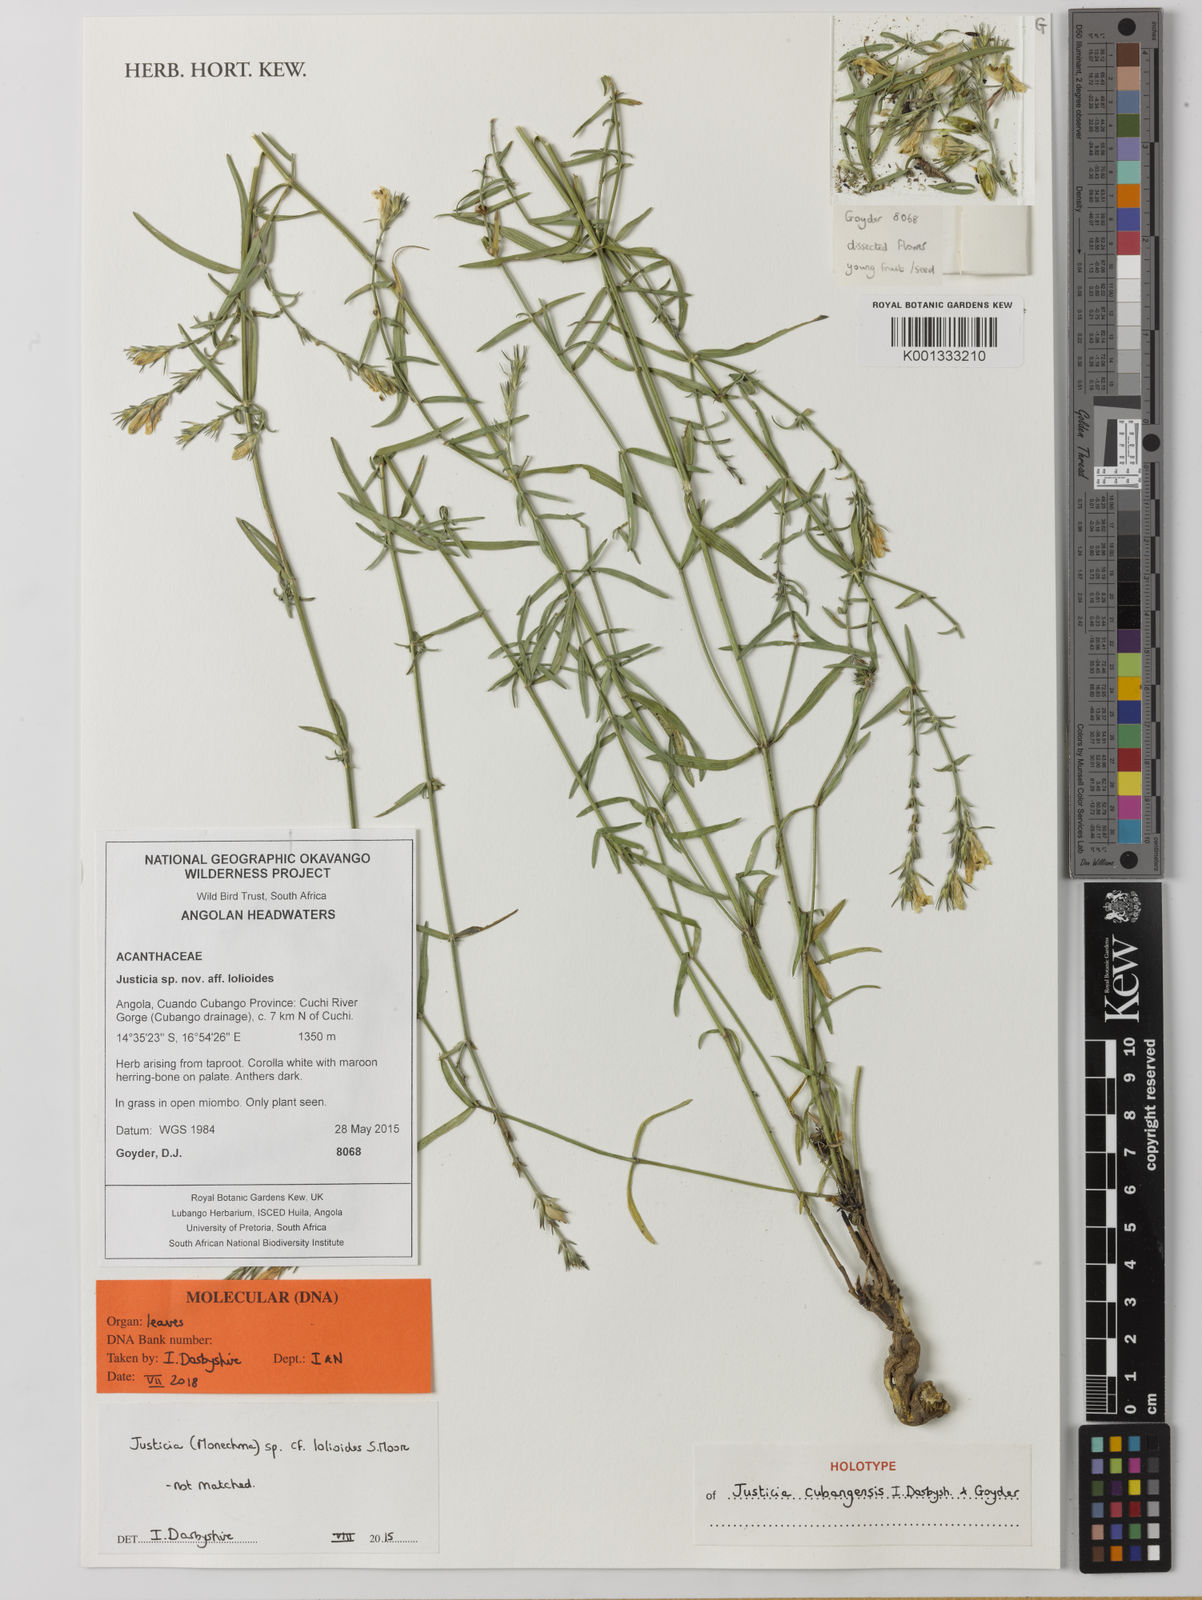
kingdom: Plantae
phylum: Tracheophyta
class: Magnoliopsida
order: Lamiales
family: Acanthaceae
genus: Justicia
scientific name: Justicia
